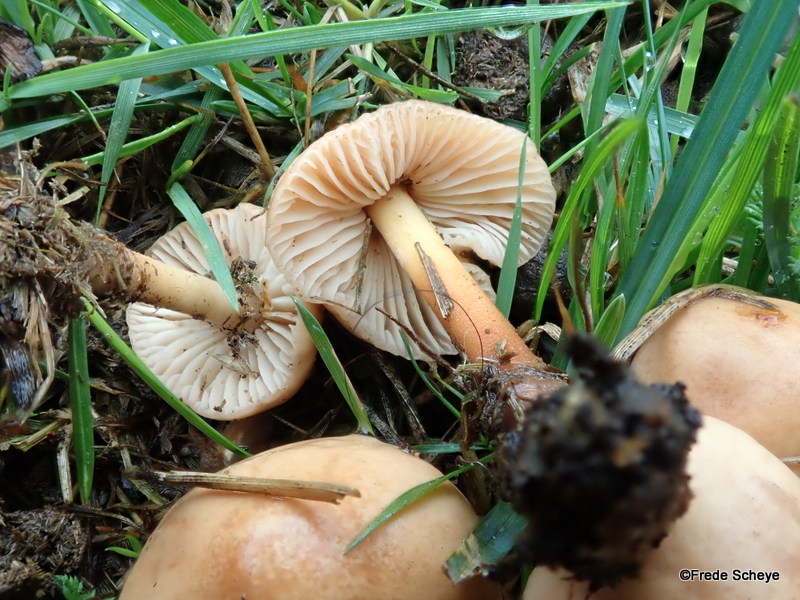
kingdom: Fungi
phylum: Basidiomycota
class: Agaricomycetes
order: Agaricales
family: Marasmiaceae
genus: Marasmius
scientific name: Marasmius oreades
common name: elledans-bruskhat
